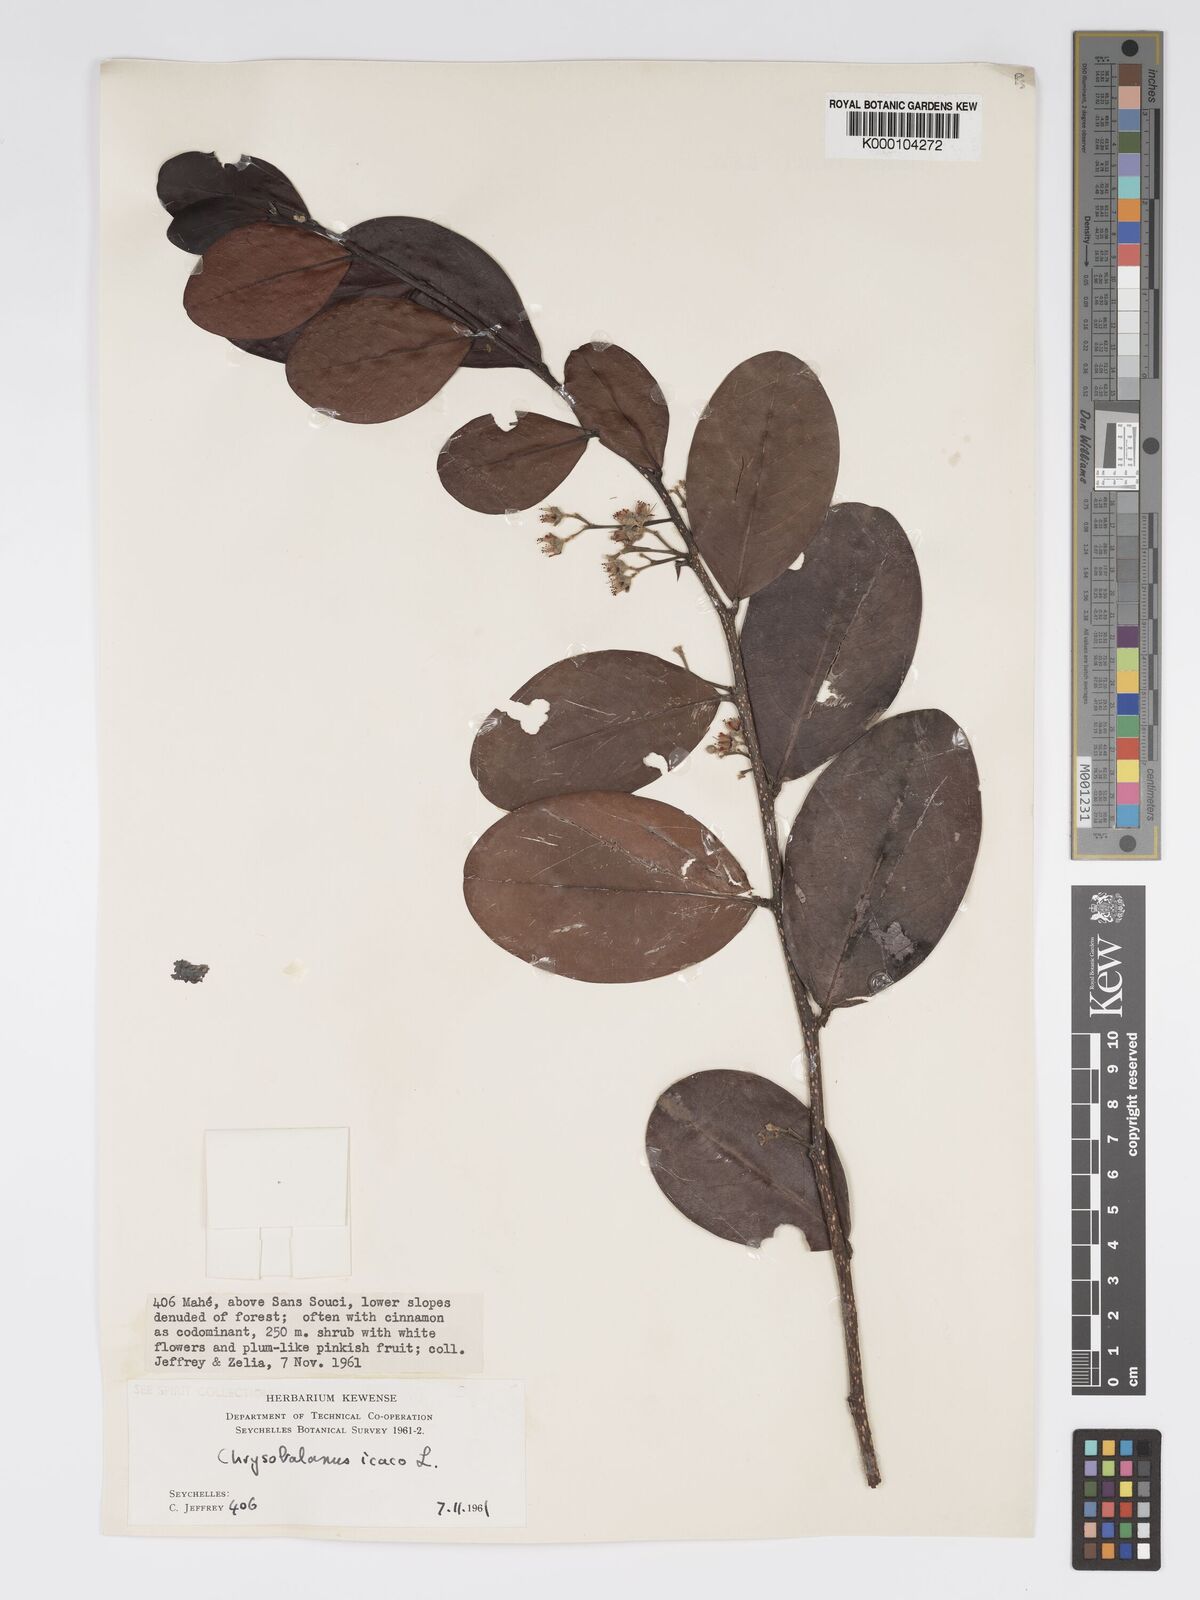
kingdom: Plantae
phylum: Tracheophyta
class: Magnoliopsida
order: Malpighiales
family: Chrysobalanaceae
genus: Chrysobalanus
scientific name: Chrysobalanus icaco
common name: Coco plum
